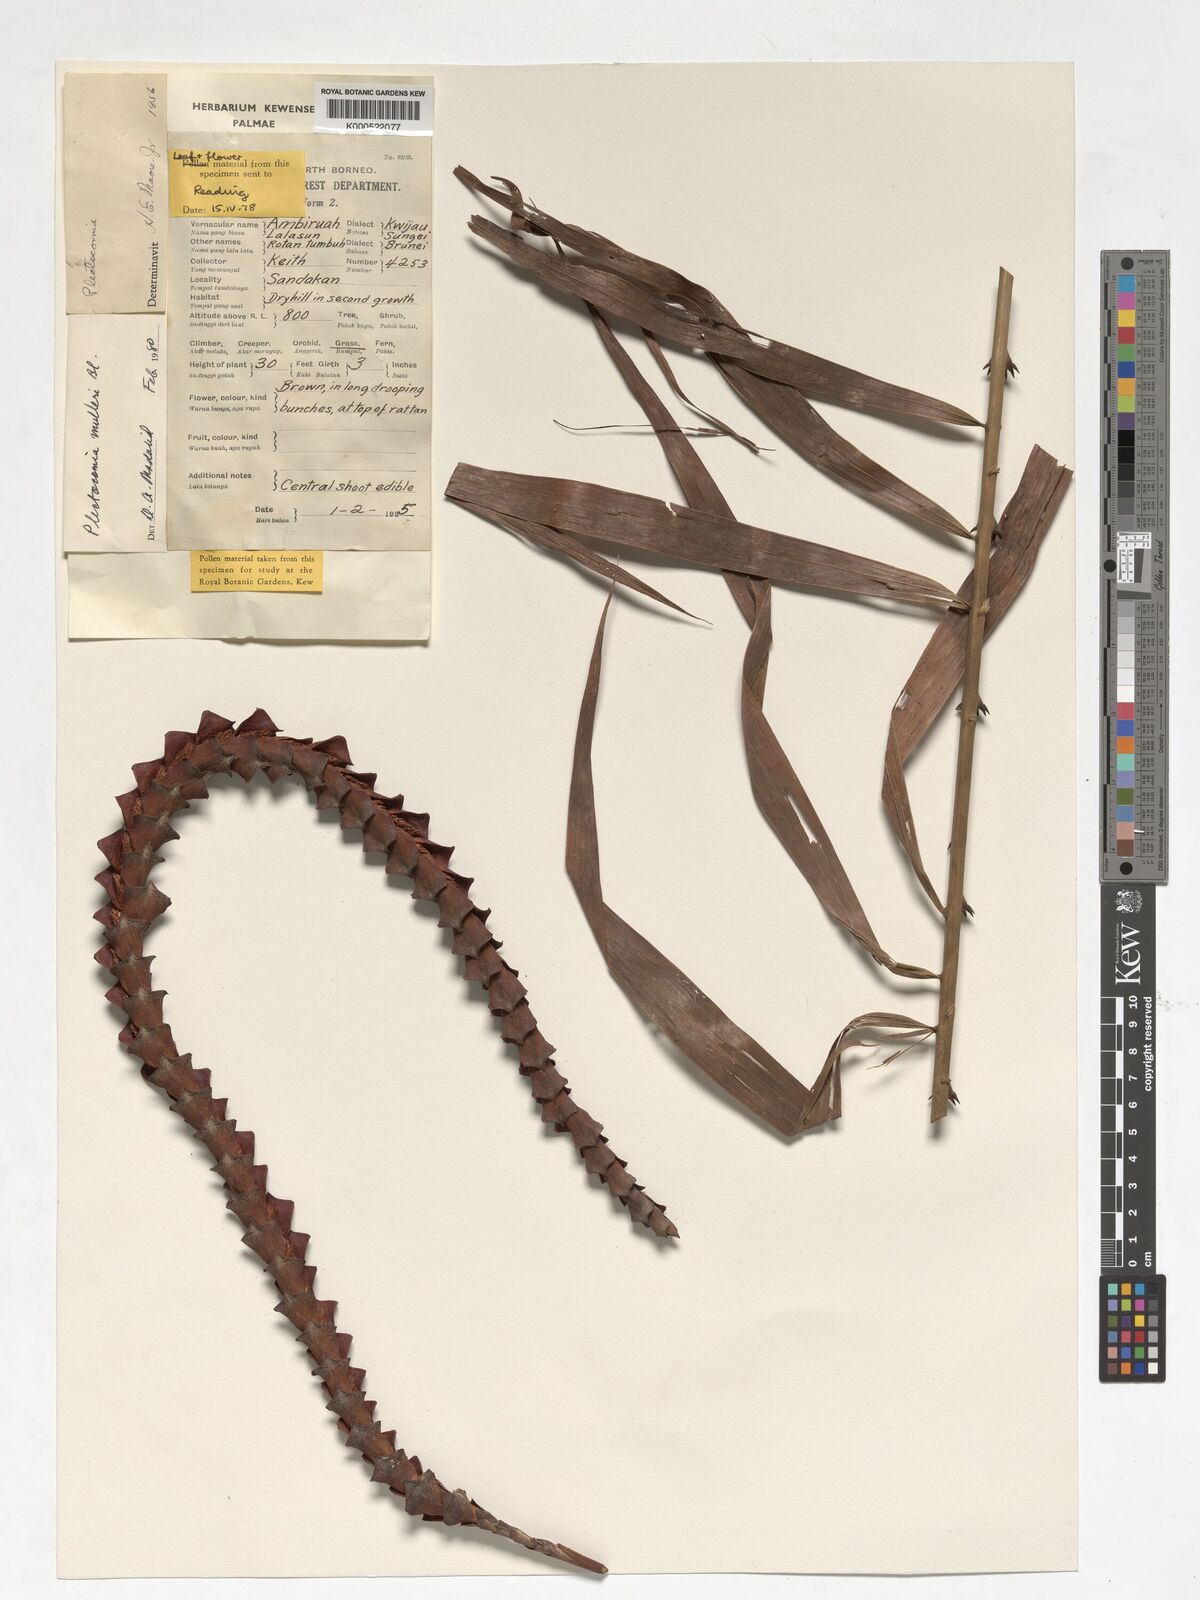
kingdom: Plantae
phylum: Tracheophyta
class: Liliopsida
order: Arecales
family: Arecaceae
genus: Plectocomia
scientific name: Plectocomia mulleri
